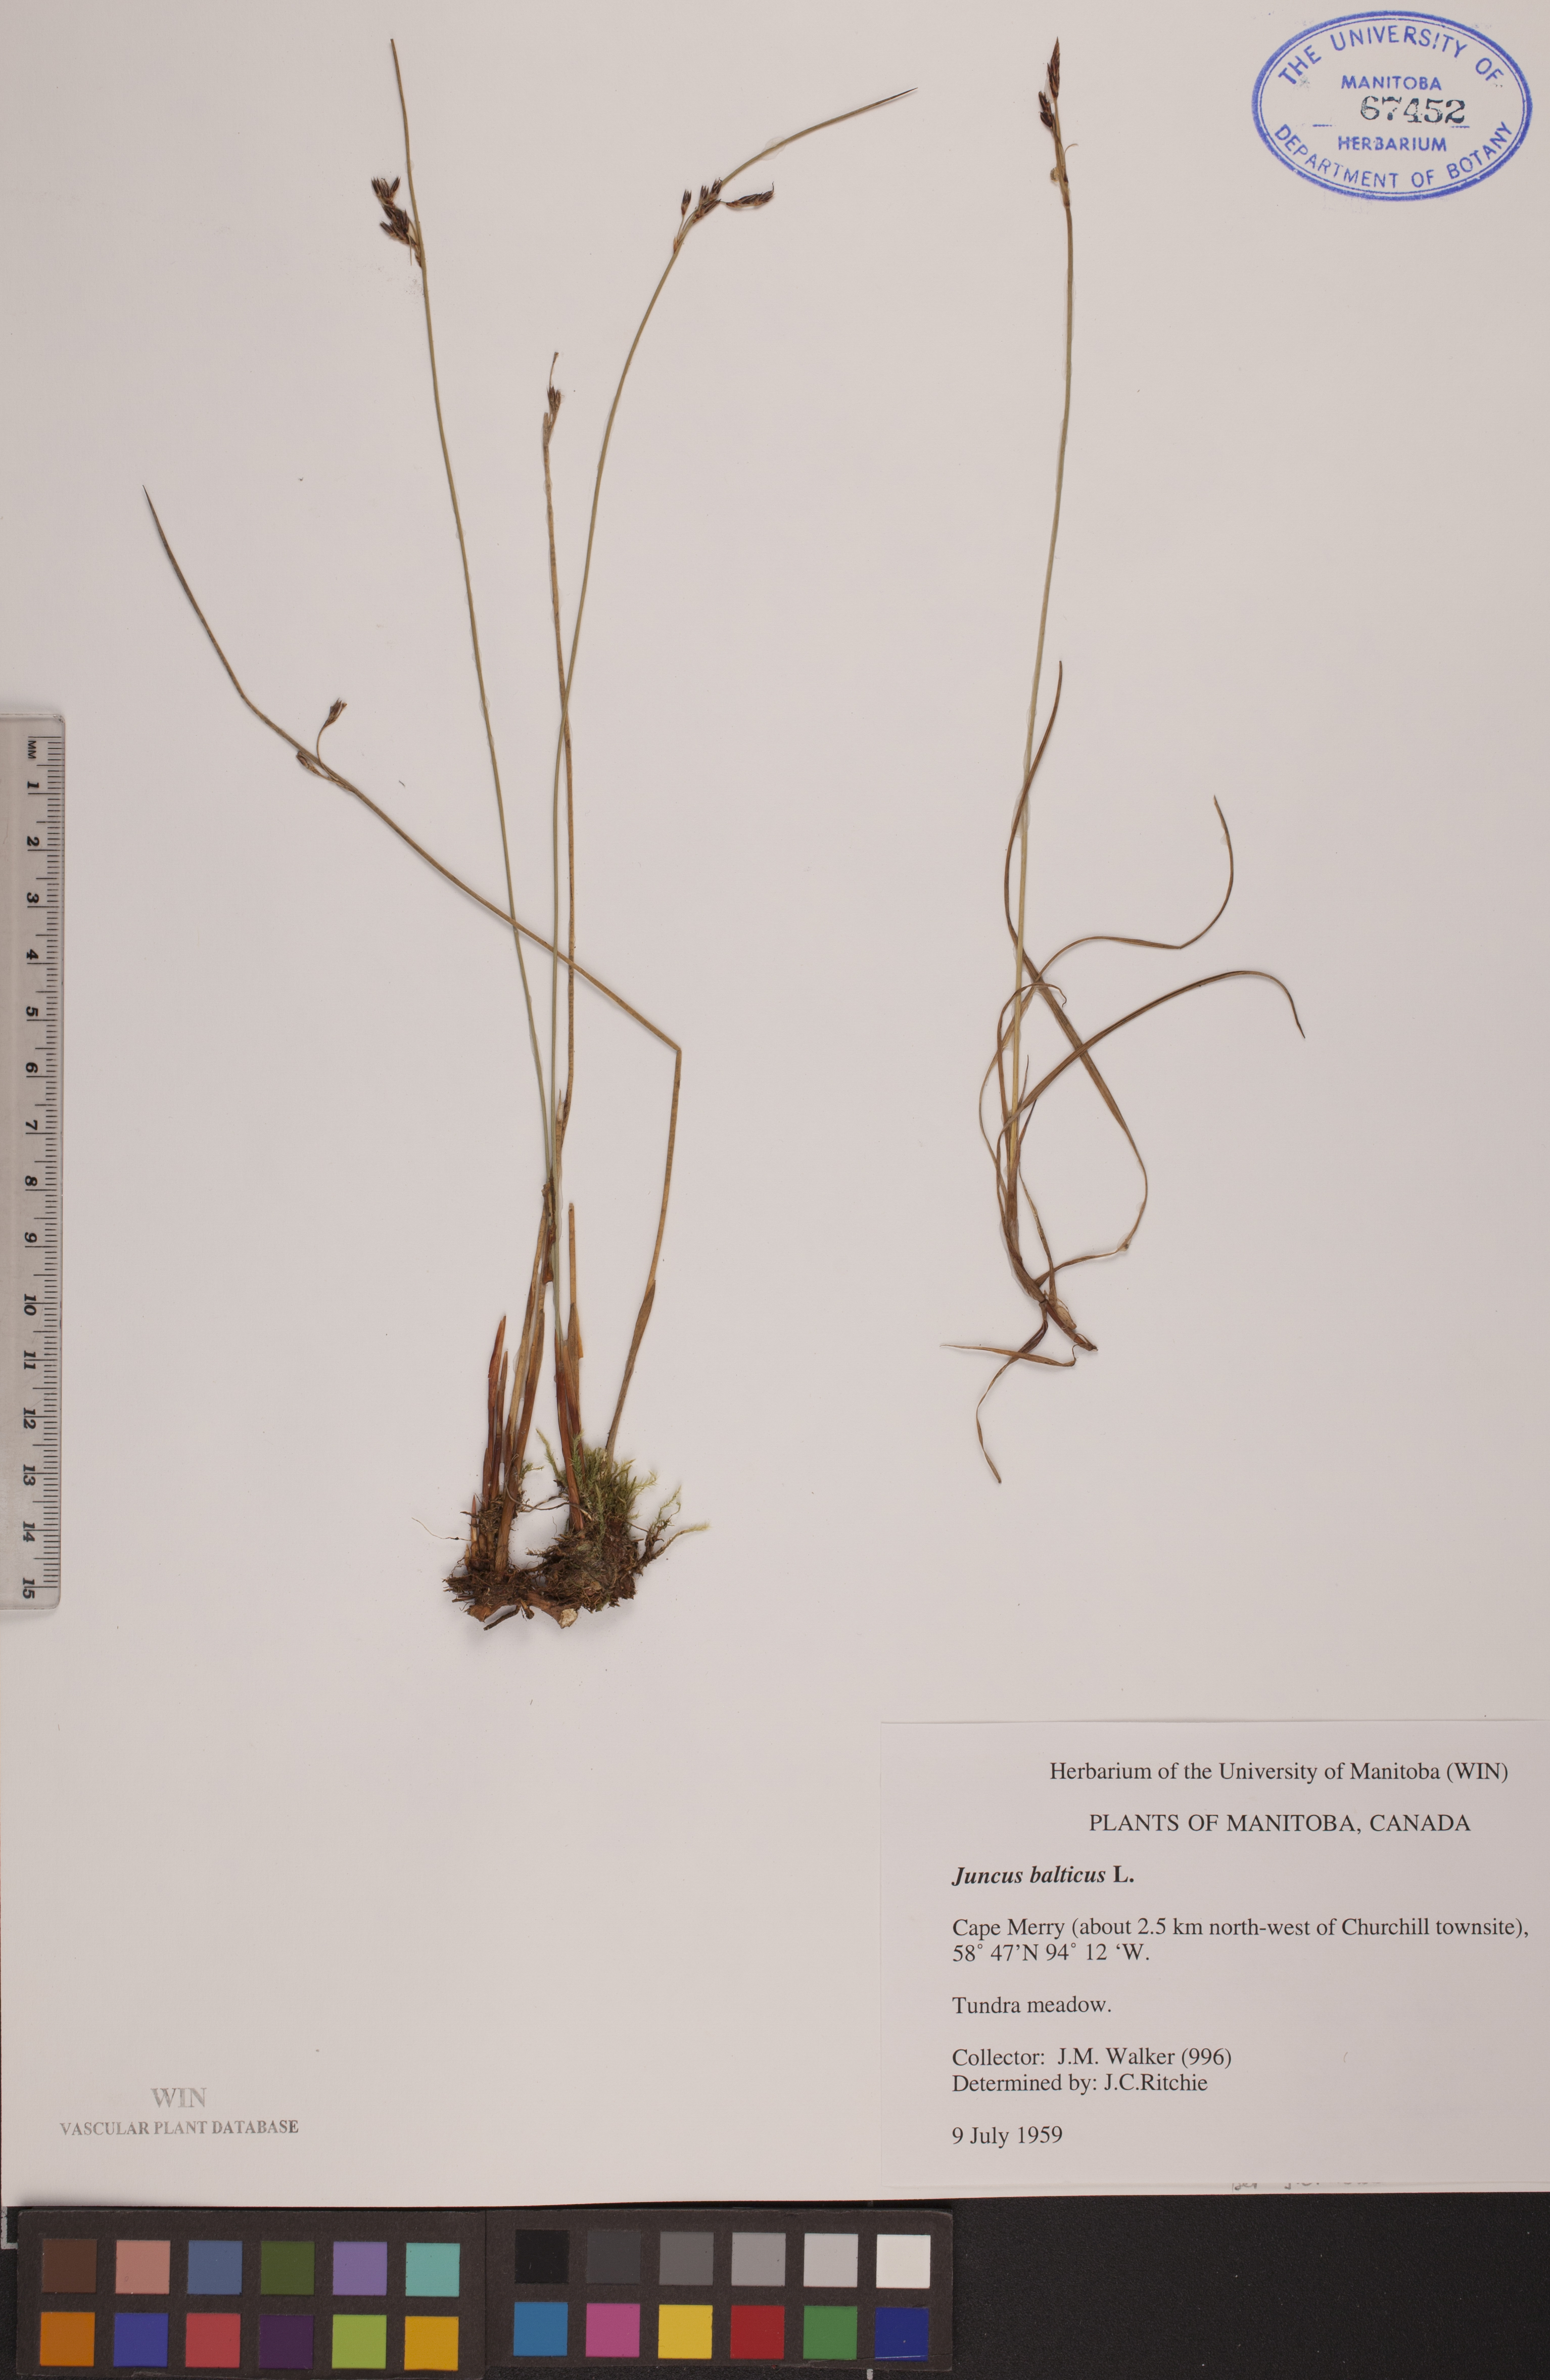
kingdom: Plantae
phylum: Tracheophyta
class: Liliopsida
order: Poales
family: Juncaceae
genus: Juncus
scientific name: Juncus balticus
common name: Baltic rush
